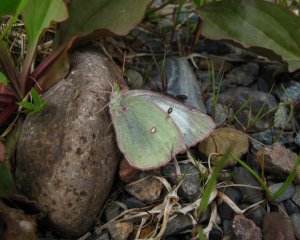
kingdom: Animalia
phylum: Arthropoda
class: Insecta
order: Lepidoptera
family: Pieridae
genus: Colias
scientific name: Colias philodice
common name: Clouded Sulphur
